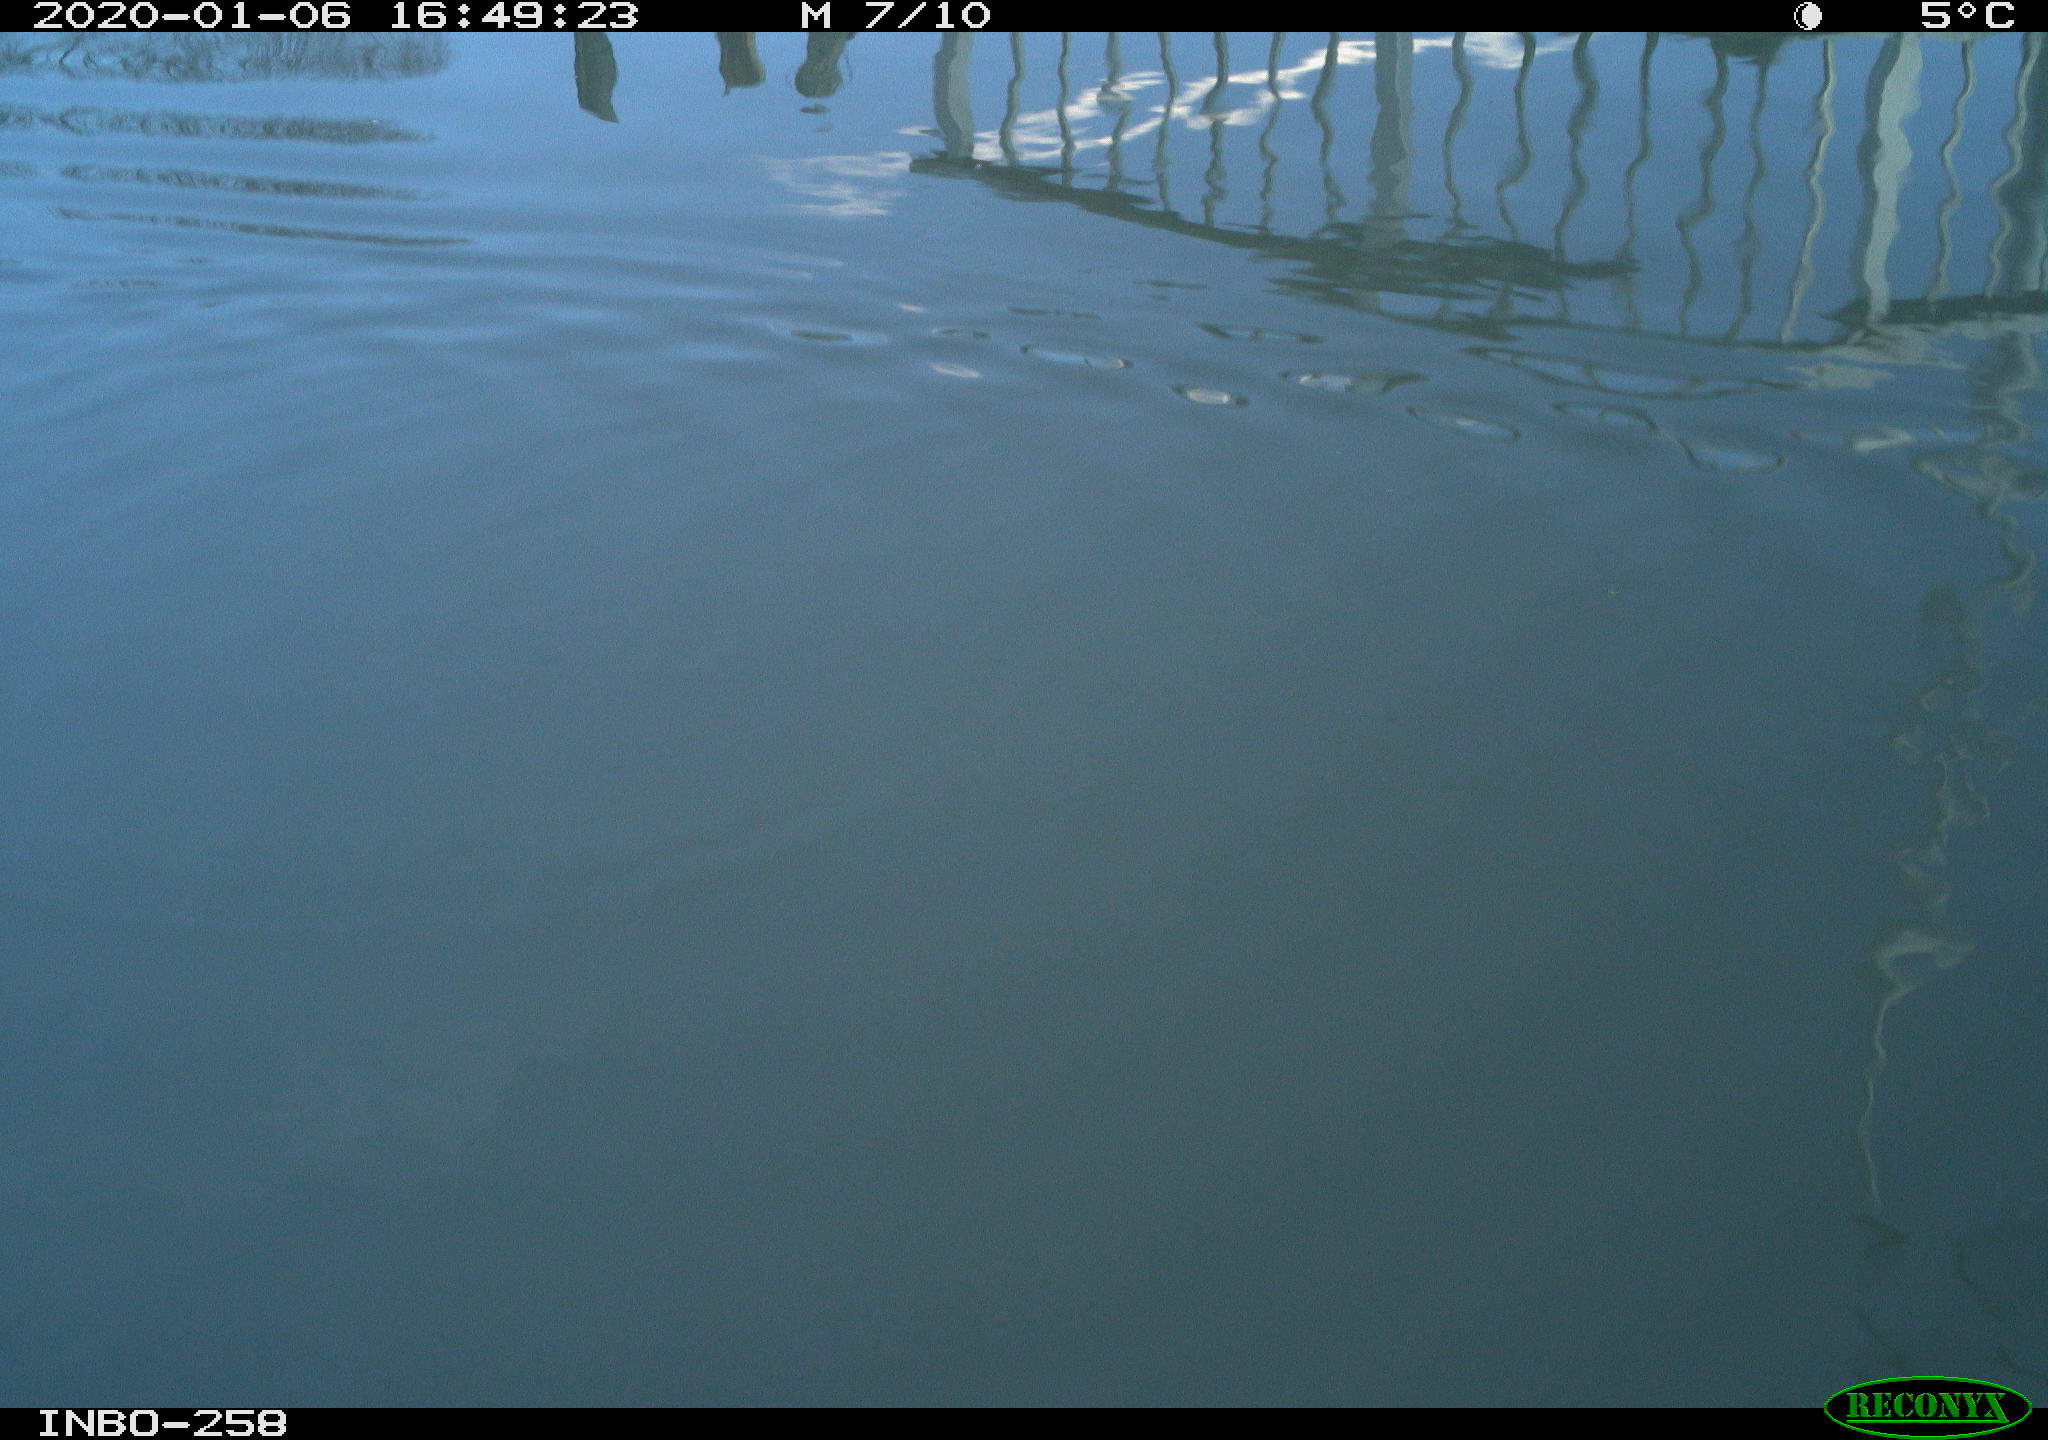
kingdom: Animalia
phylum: Chordata
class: Aves
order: Gruiformes
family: Rallidae
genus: Gallinula
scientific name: Gallinula chloropus
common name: Common moorhen
